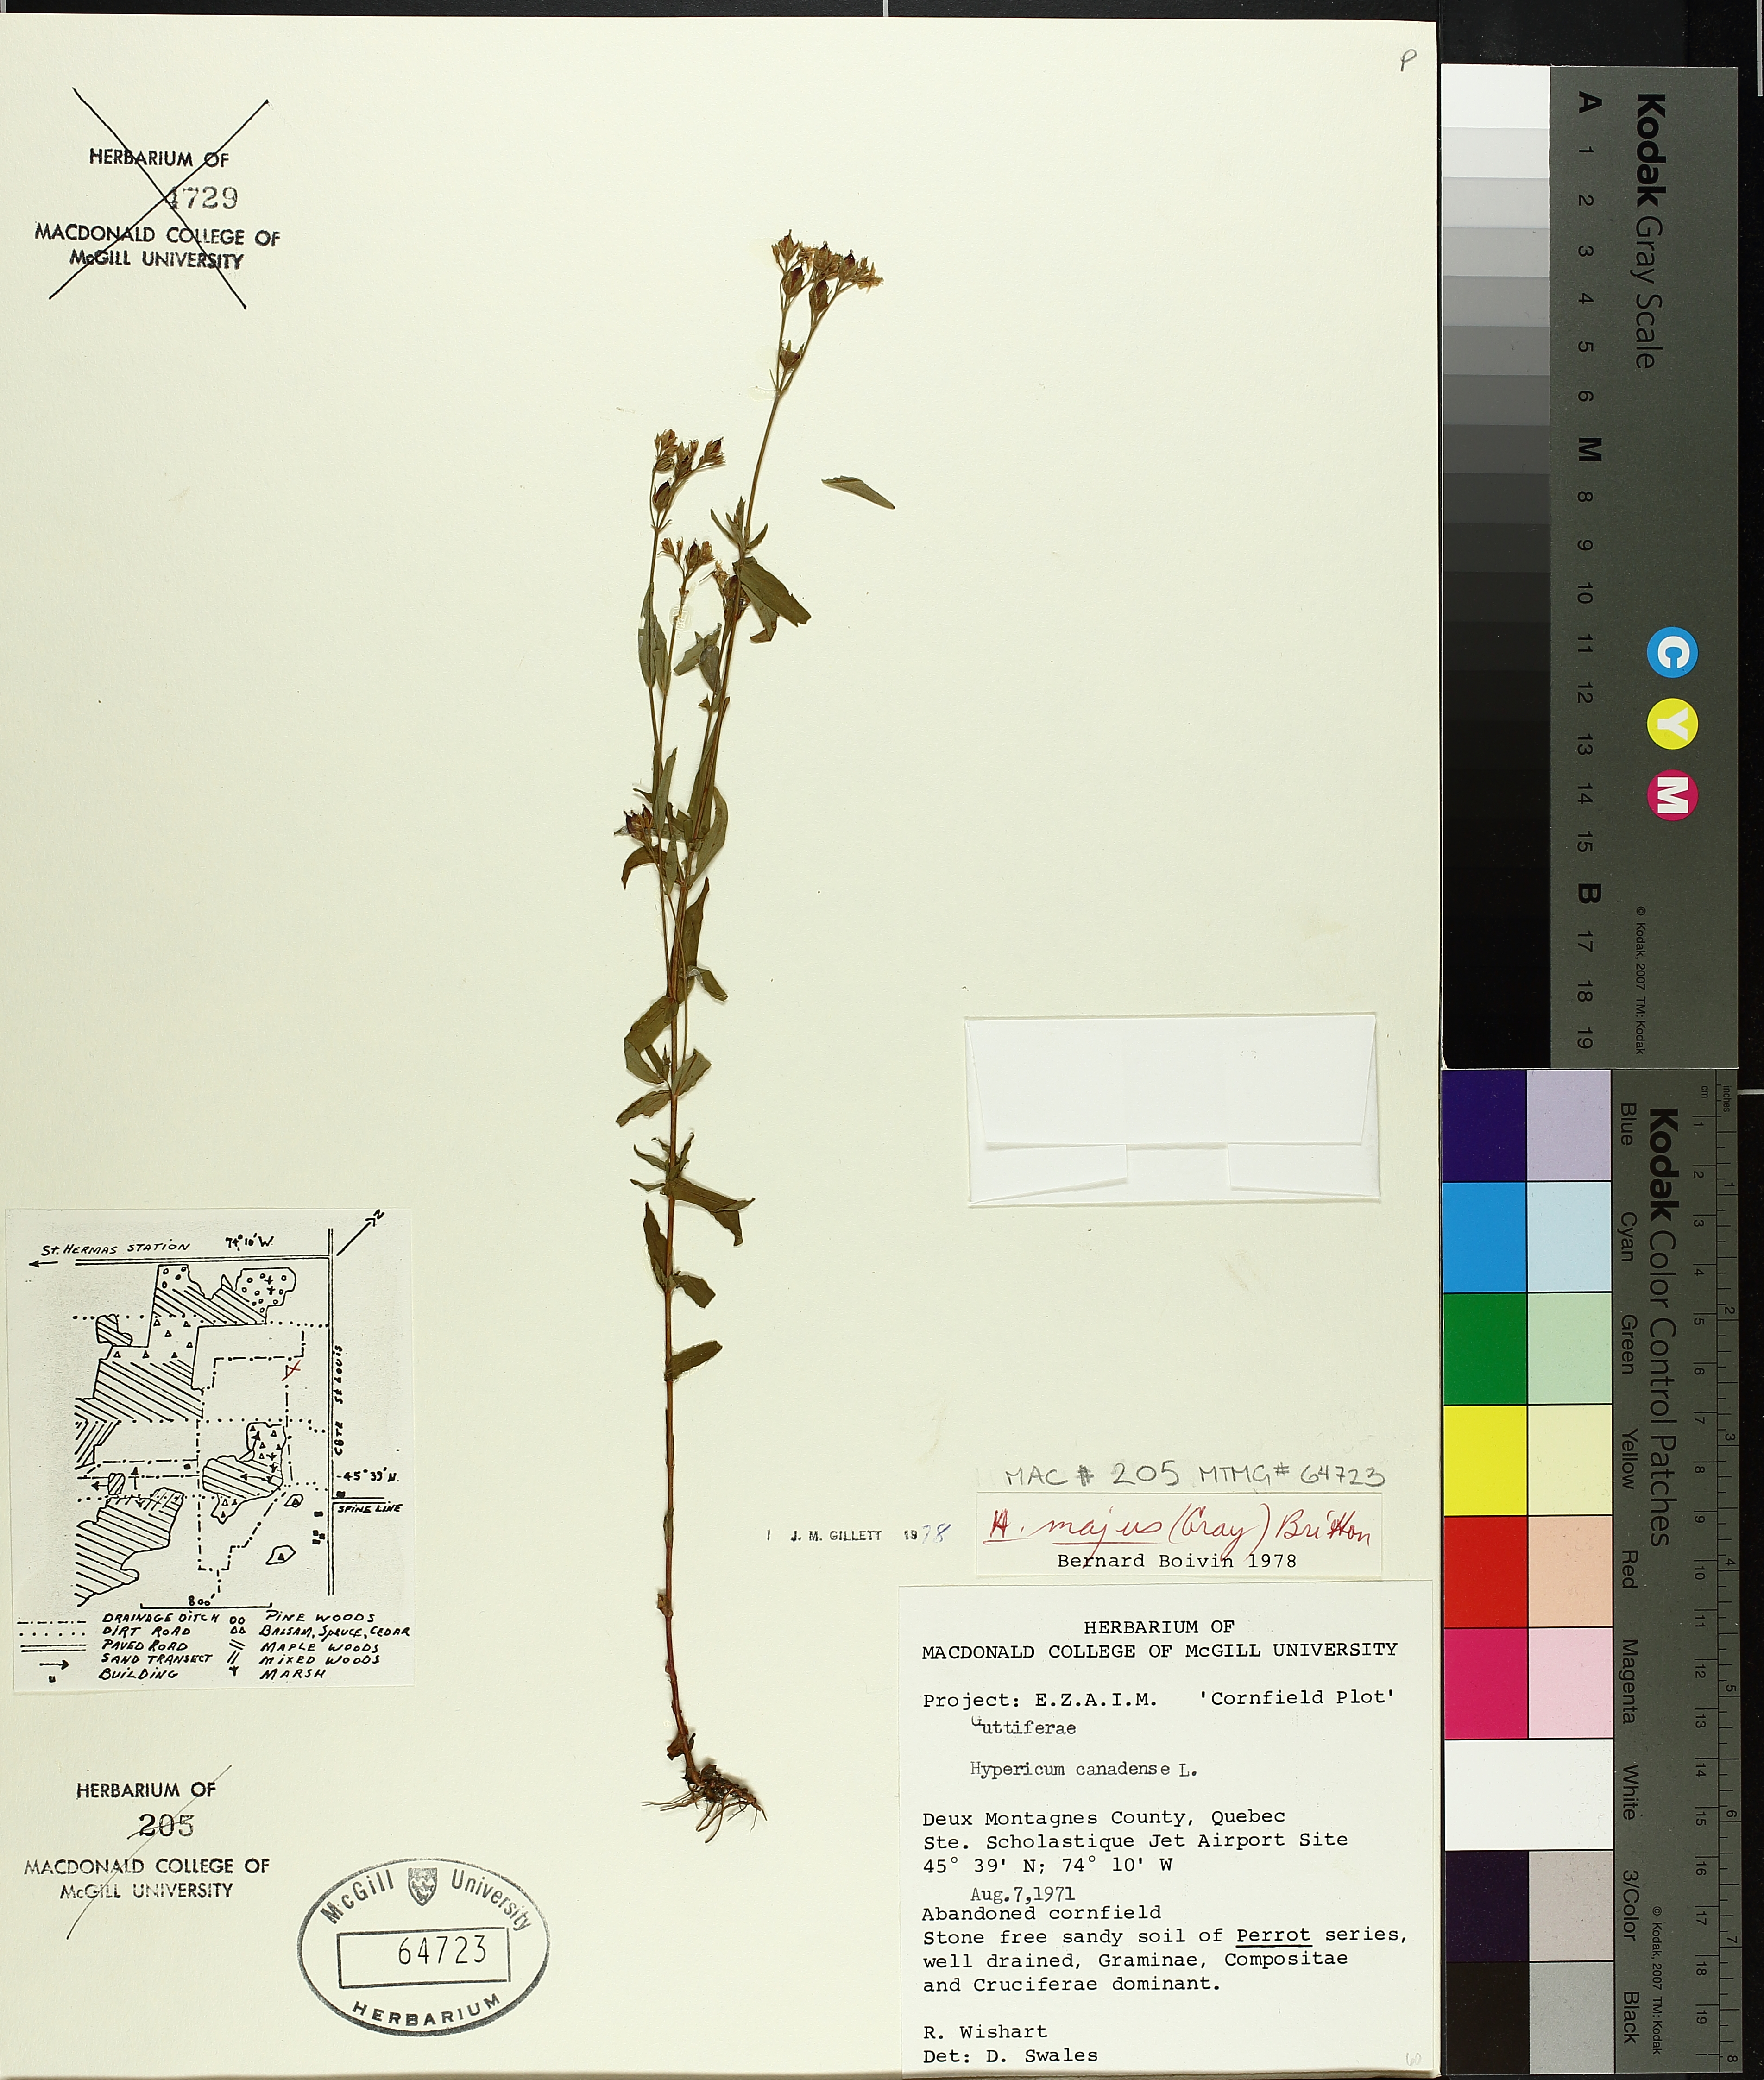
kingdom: Plantae
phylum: Tracheophyta
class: Magnoliopsida
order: Malpighiales
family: Hypericaceae
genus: Hypericum
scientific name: Hypericum majus
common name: Greater canadian st. john's-wort
